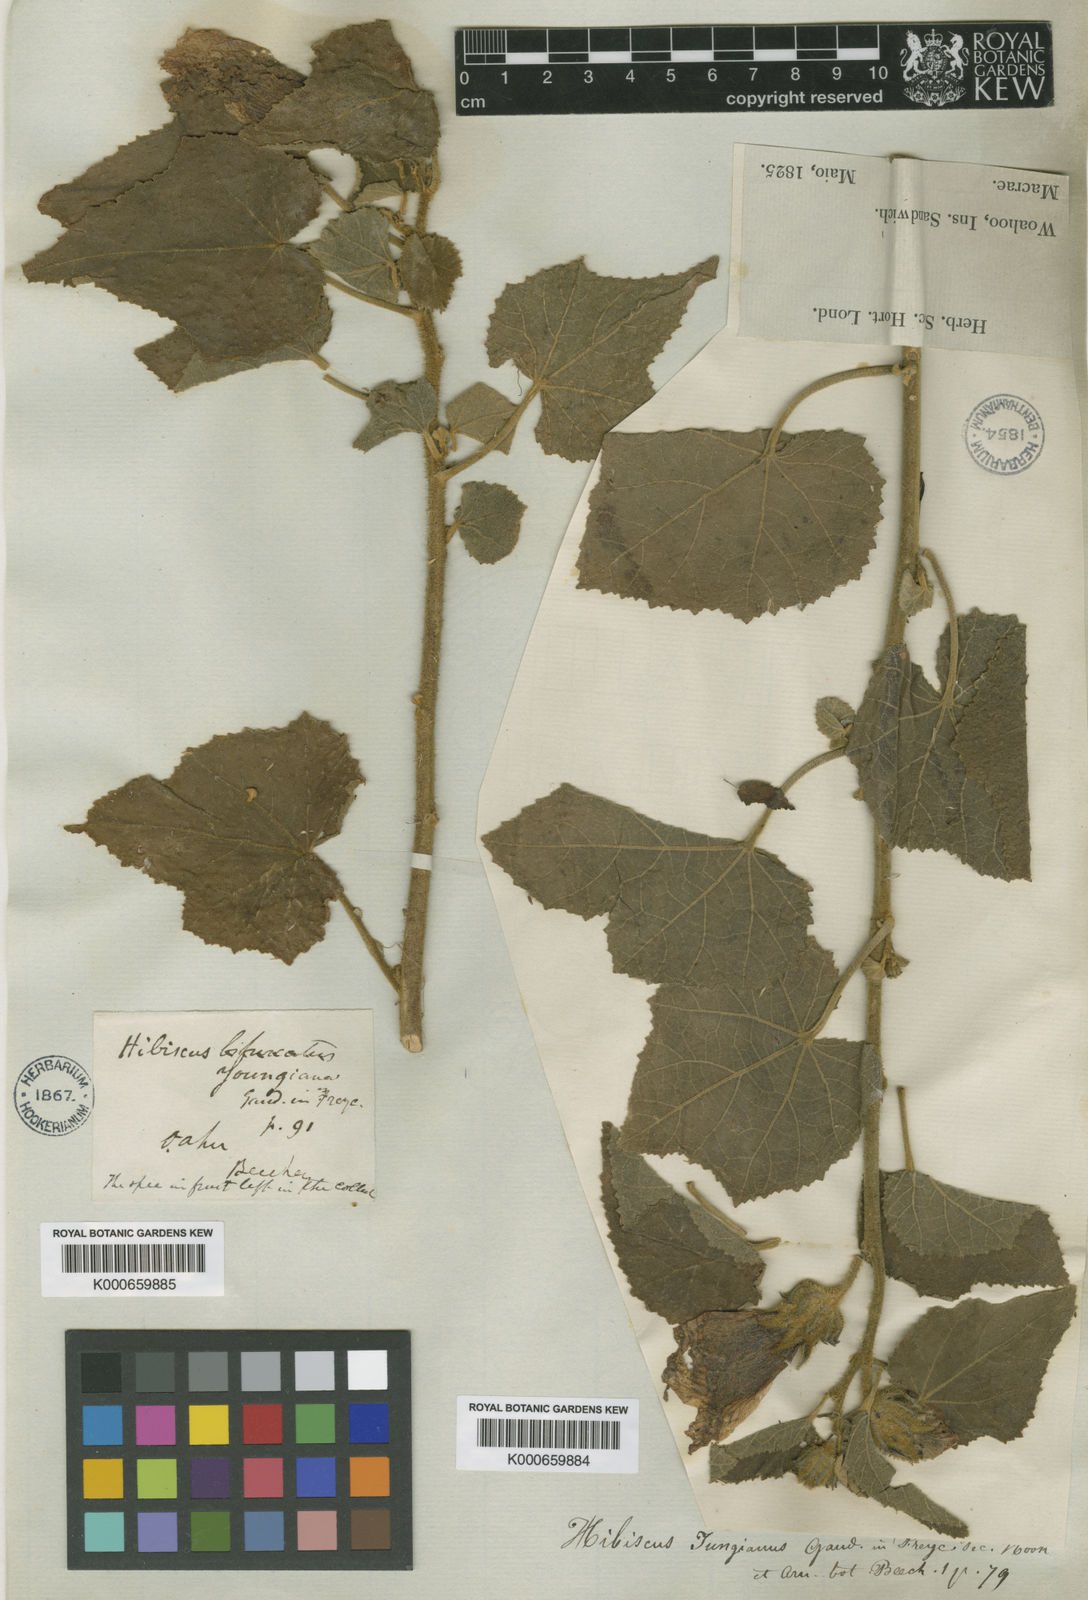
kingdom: Plantae
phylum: Tracheophyta
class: Magnoliopsida
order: Malvales
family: Malvaceae
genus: Hibiscus
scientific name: Hibiscus
